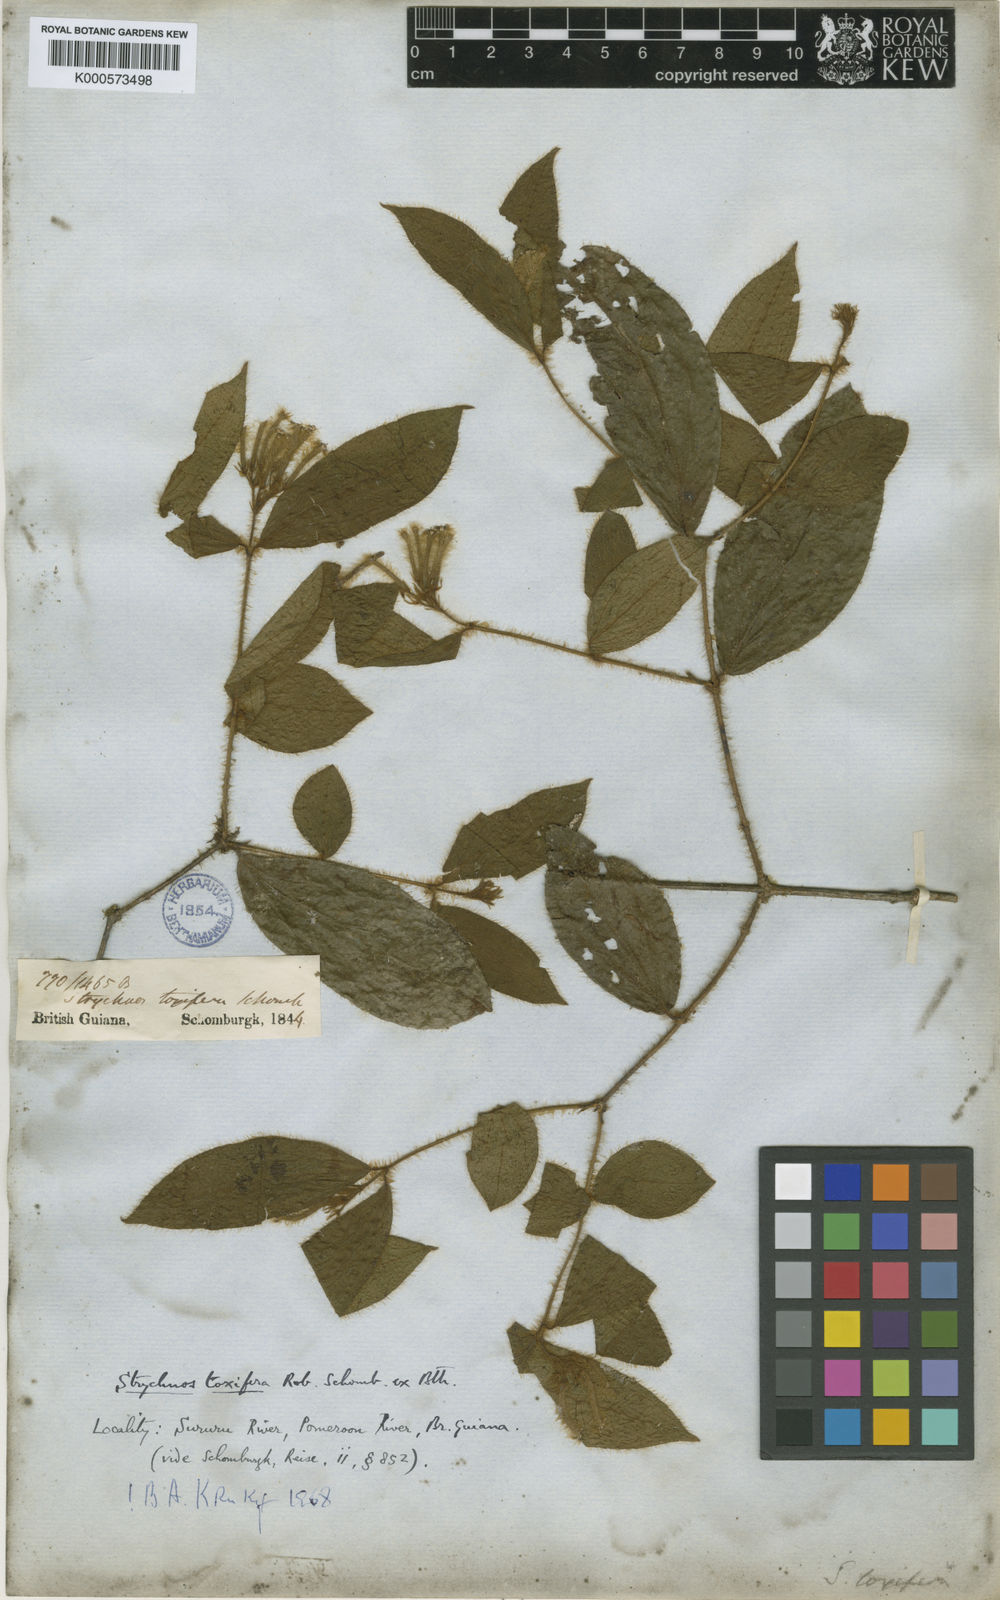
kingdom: Plantae
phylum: Tracheophyta
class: Magnoliopsida
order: Gentianales
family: Loganiaceae
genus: Strychnos
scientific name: Strychnos
